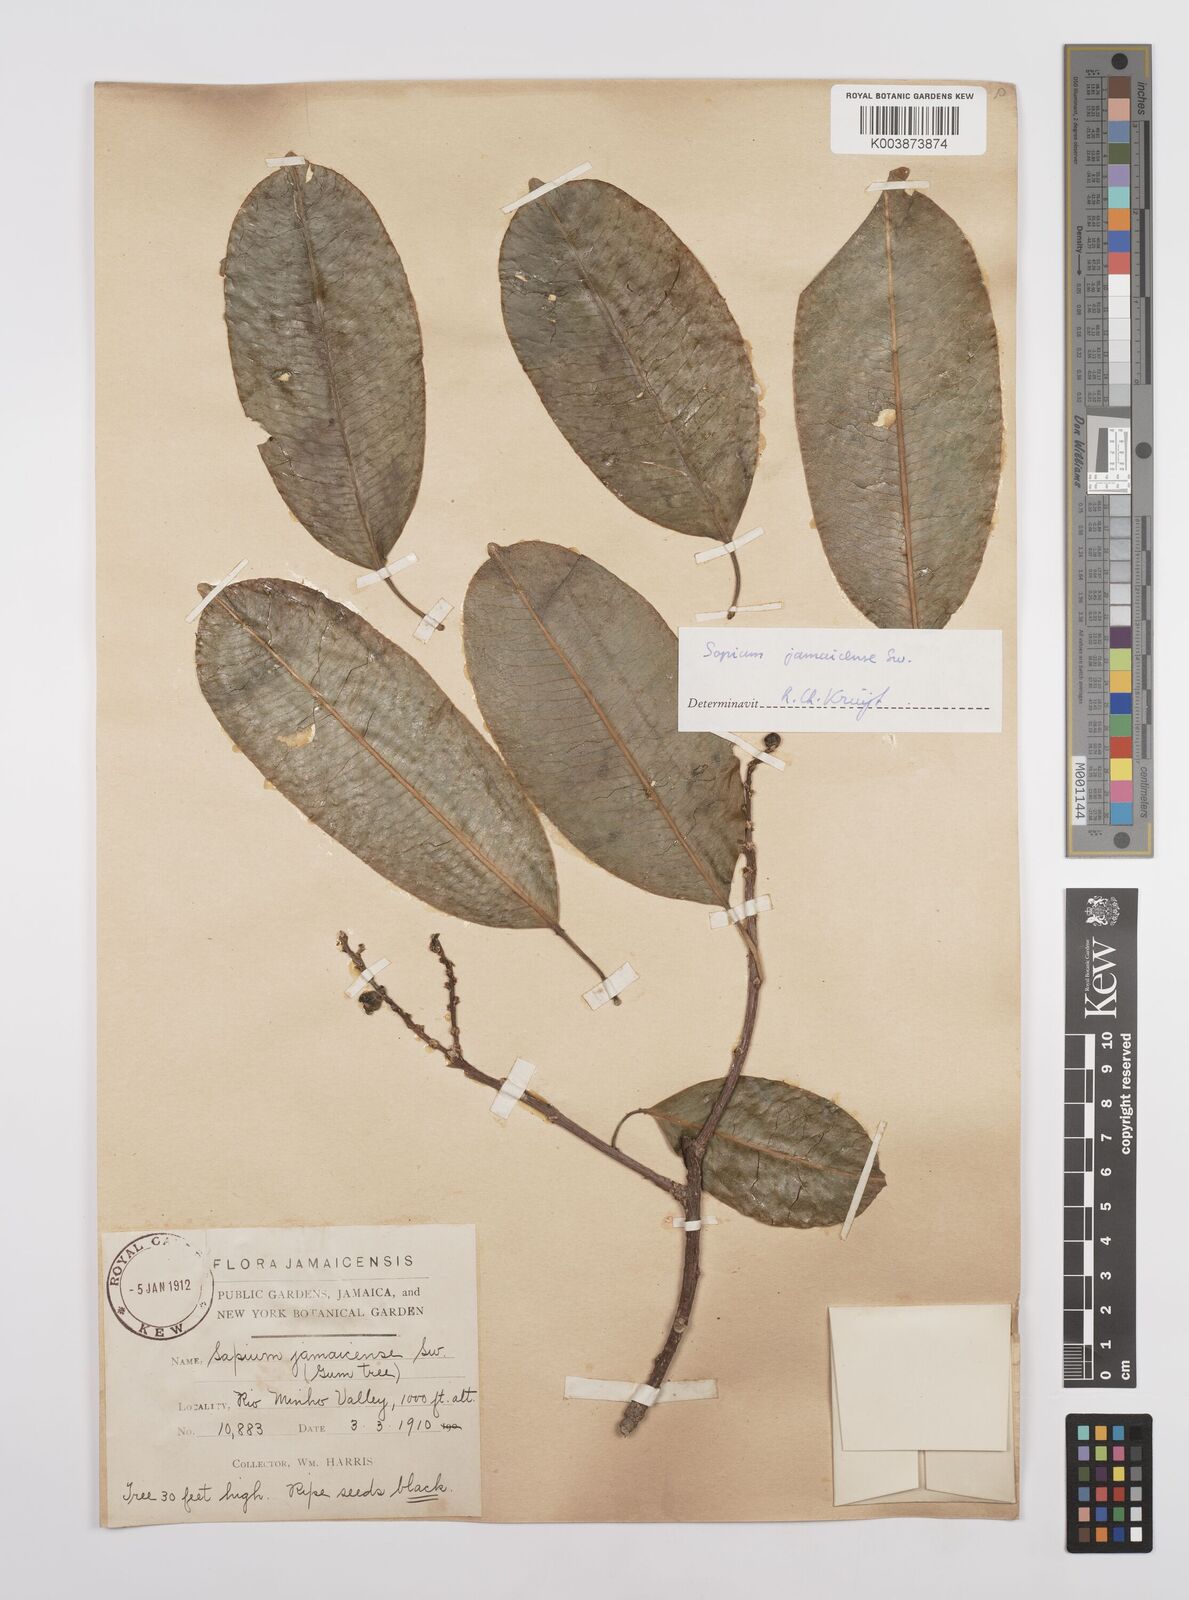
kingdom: Plantae
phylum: Tracheophyta
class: Magnoliopsida
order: Malpighiales
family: Euphorbiaceae
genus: Sapium
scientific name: Sapium glandulosum
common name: Milktree
